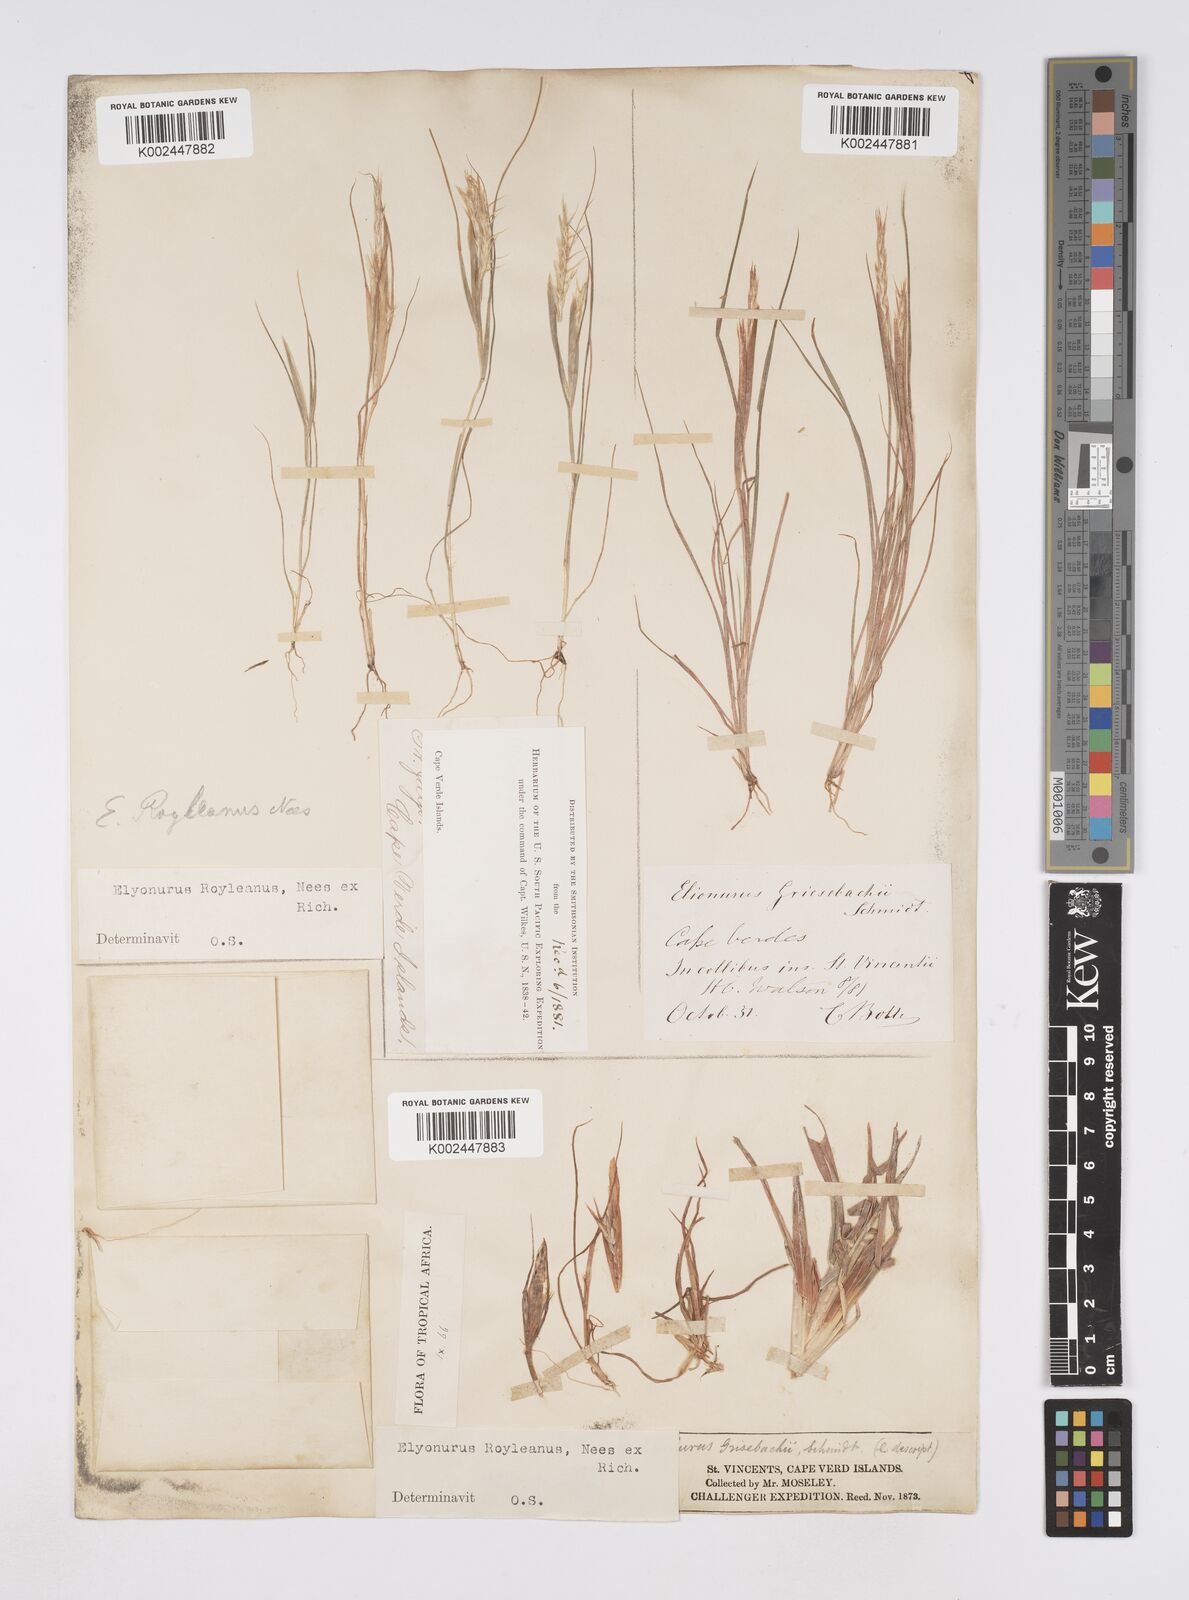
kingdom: Plantae
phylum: Tracheophyta
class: Liliopsida
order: Poales
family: Poaceae
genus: Elionurus
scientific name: Elionurus royleanus
